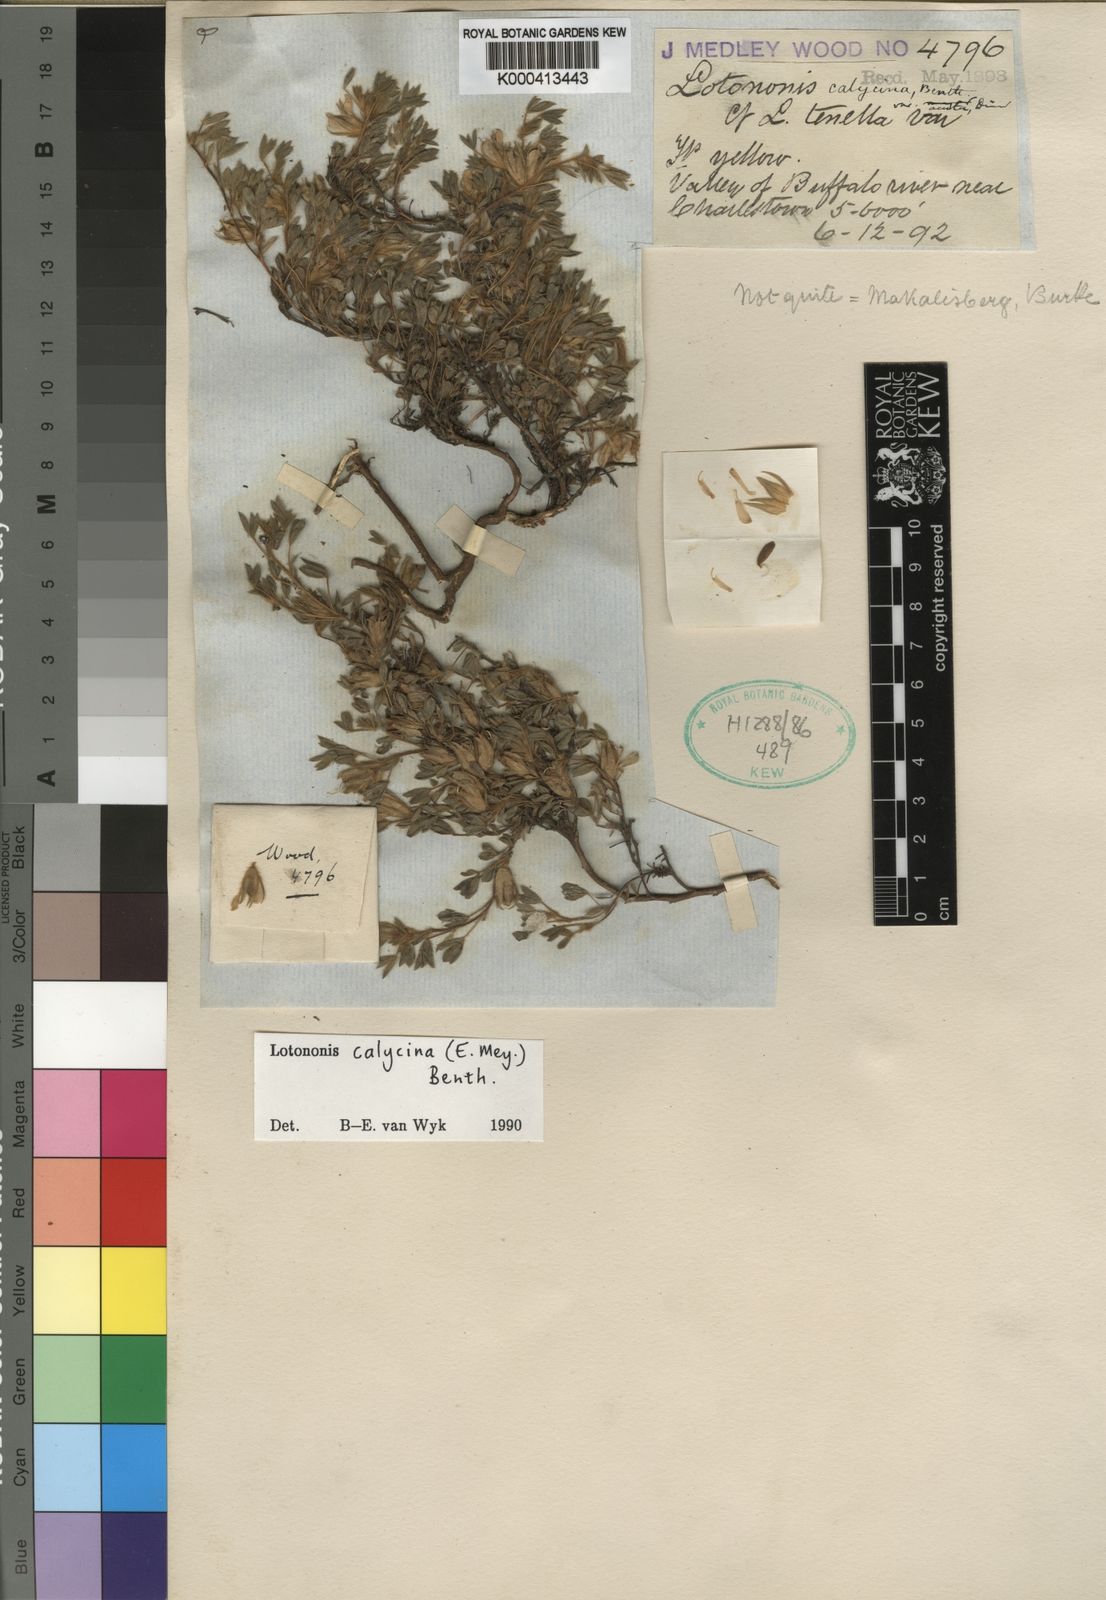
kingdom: Plantae
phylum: Tracheophyta
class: Magnoliopsida
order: Fabales
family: Fabaceae
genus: Leobordea
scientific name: Leobordea divaricata
